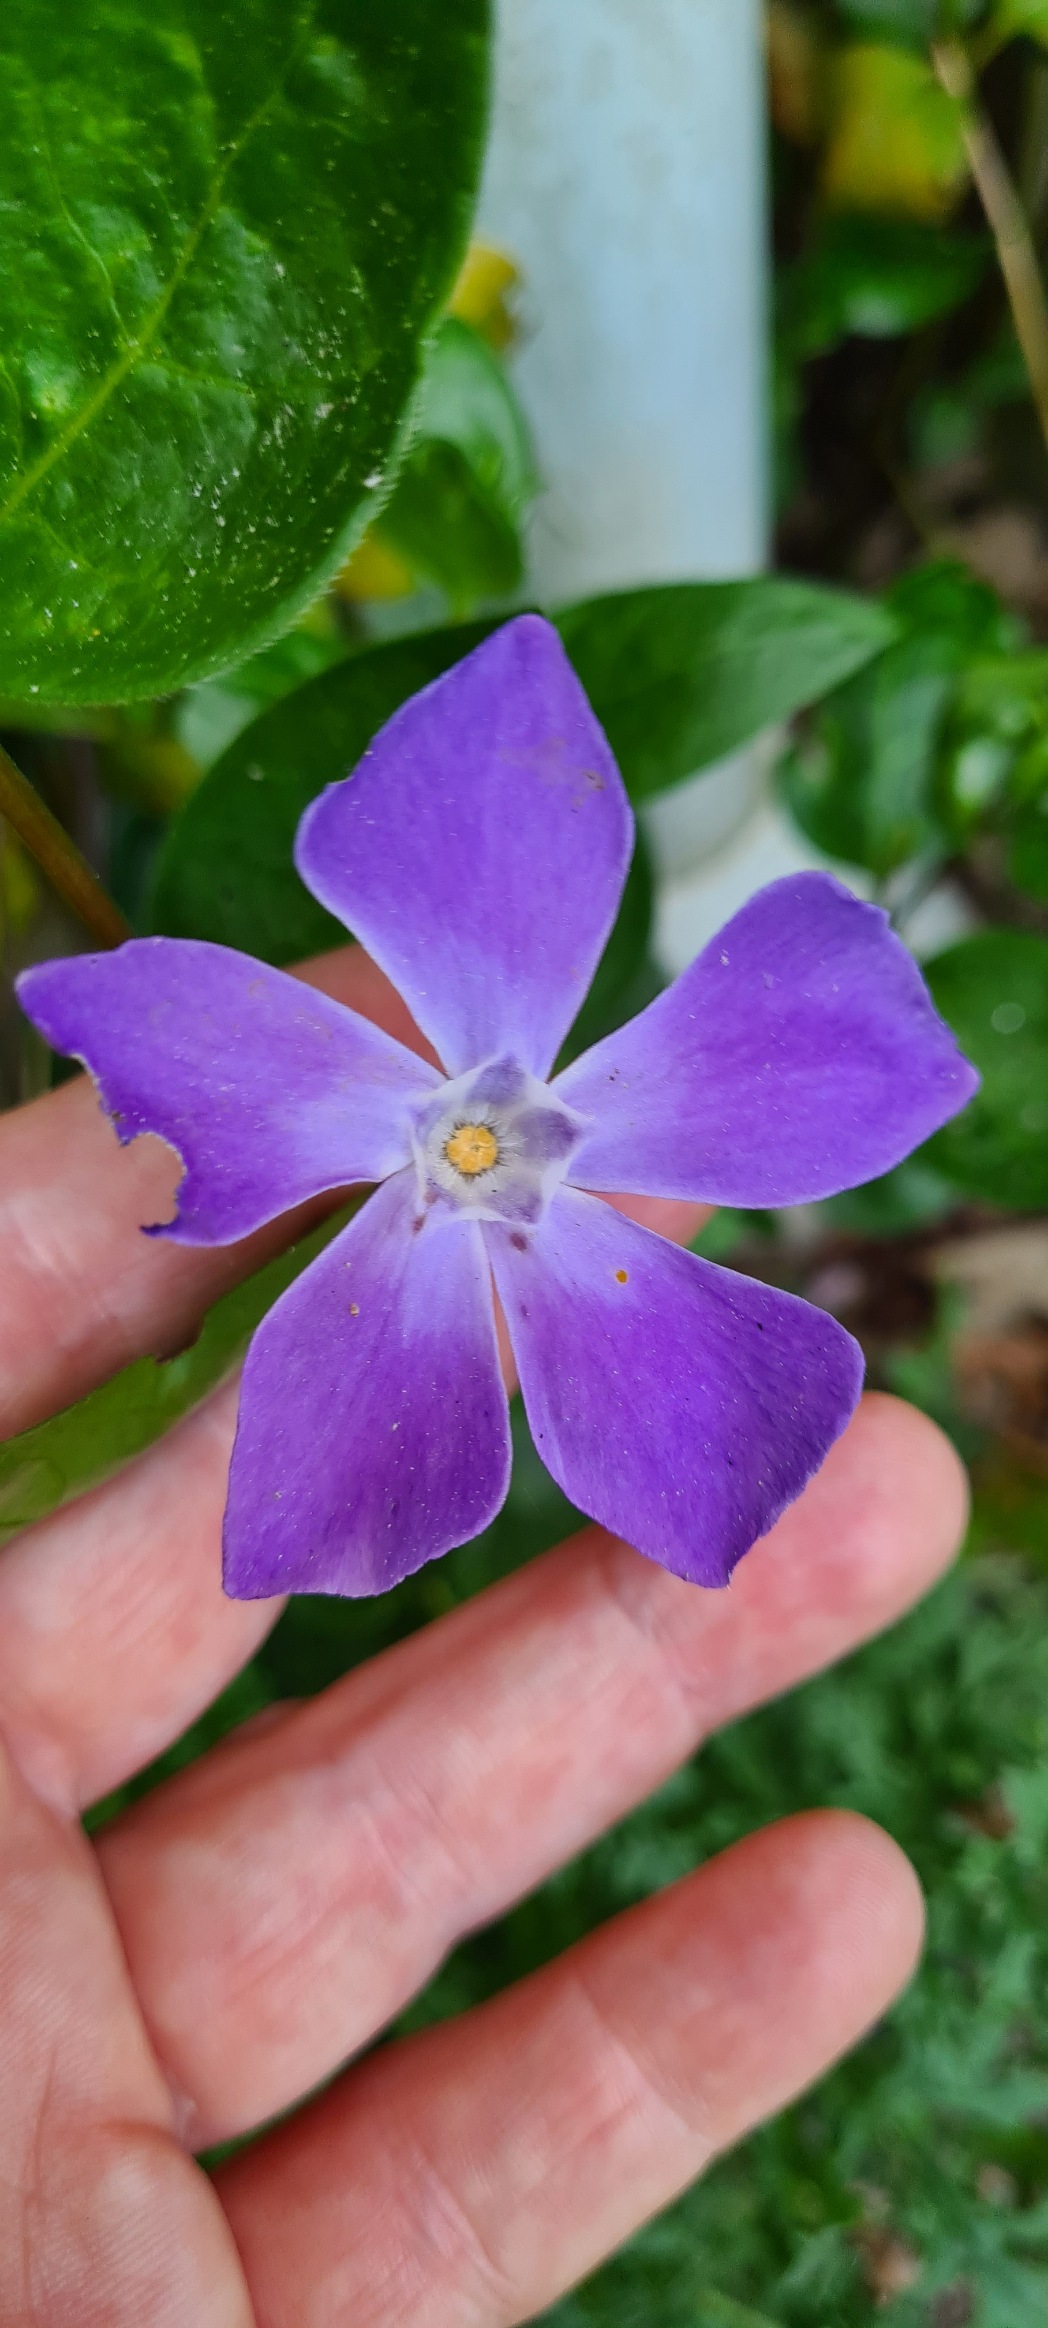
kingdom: Plantae
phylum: Tracheophyta
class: Magnoliopsida
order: Gentianales
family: Apocynaceae
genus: Vinca
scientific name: Vinca major
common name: Stor singrøn
